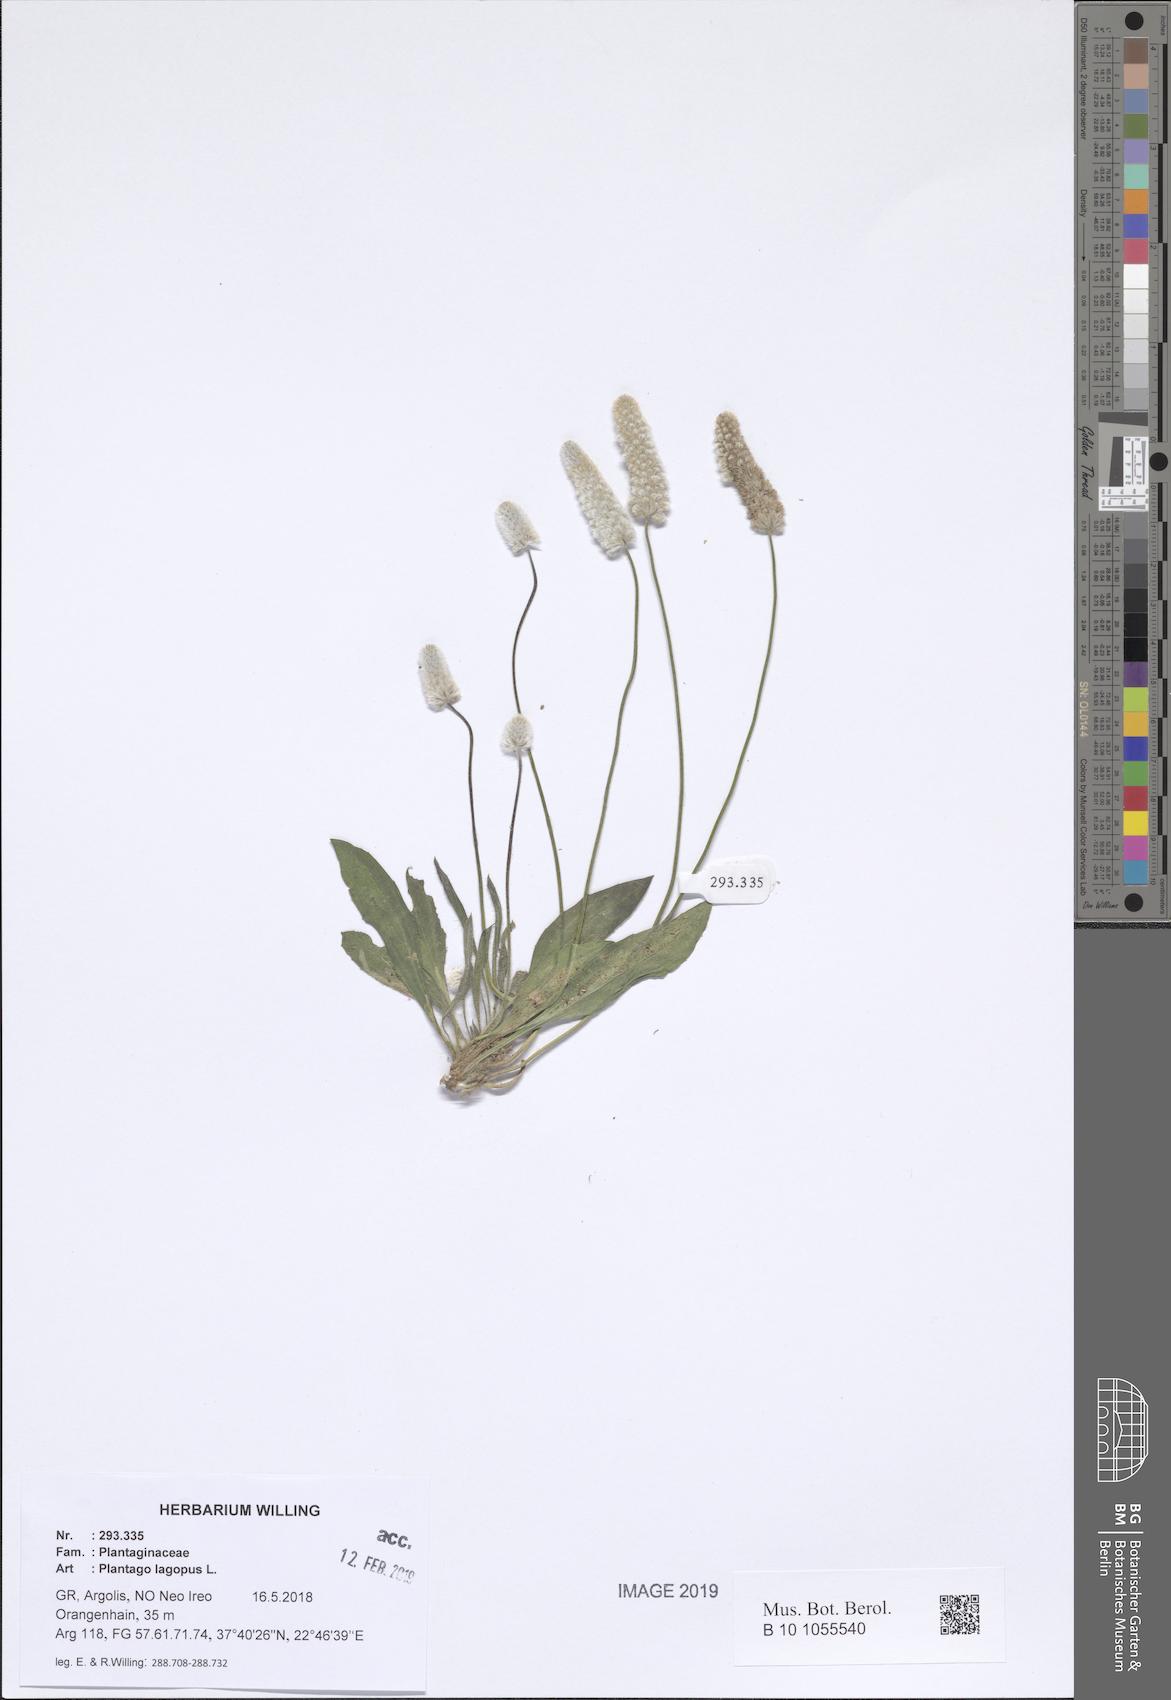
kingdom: Plantae
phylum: Tracheophyta
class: Magnoliopsida
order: Lamiales
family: Plantaginaceae
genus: Plantago
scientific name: Plantago lagopus
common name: Hare-foot plantain
